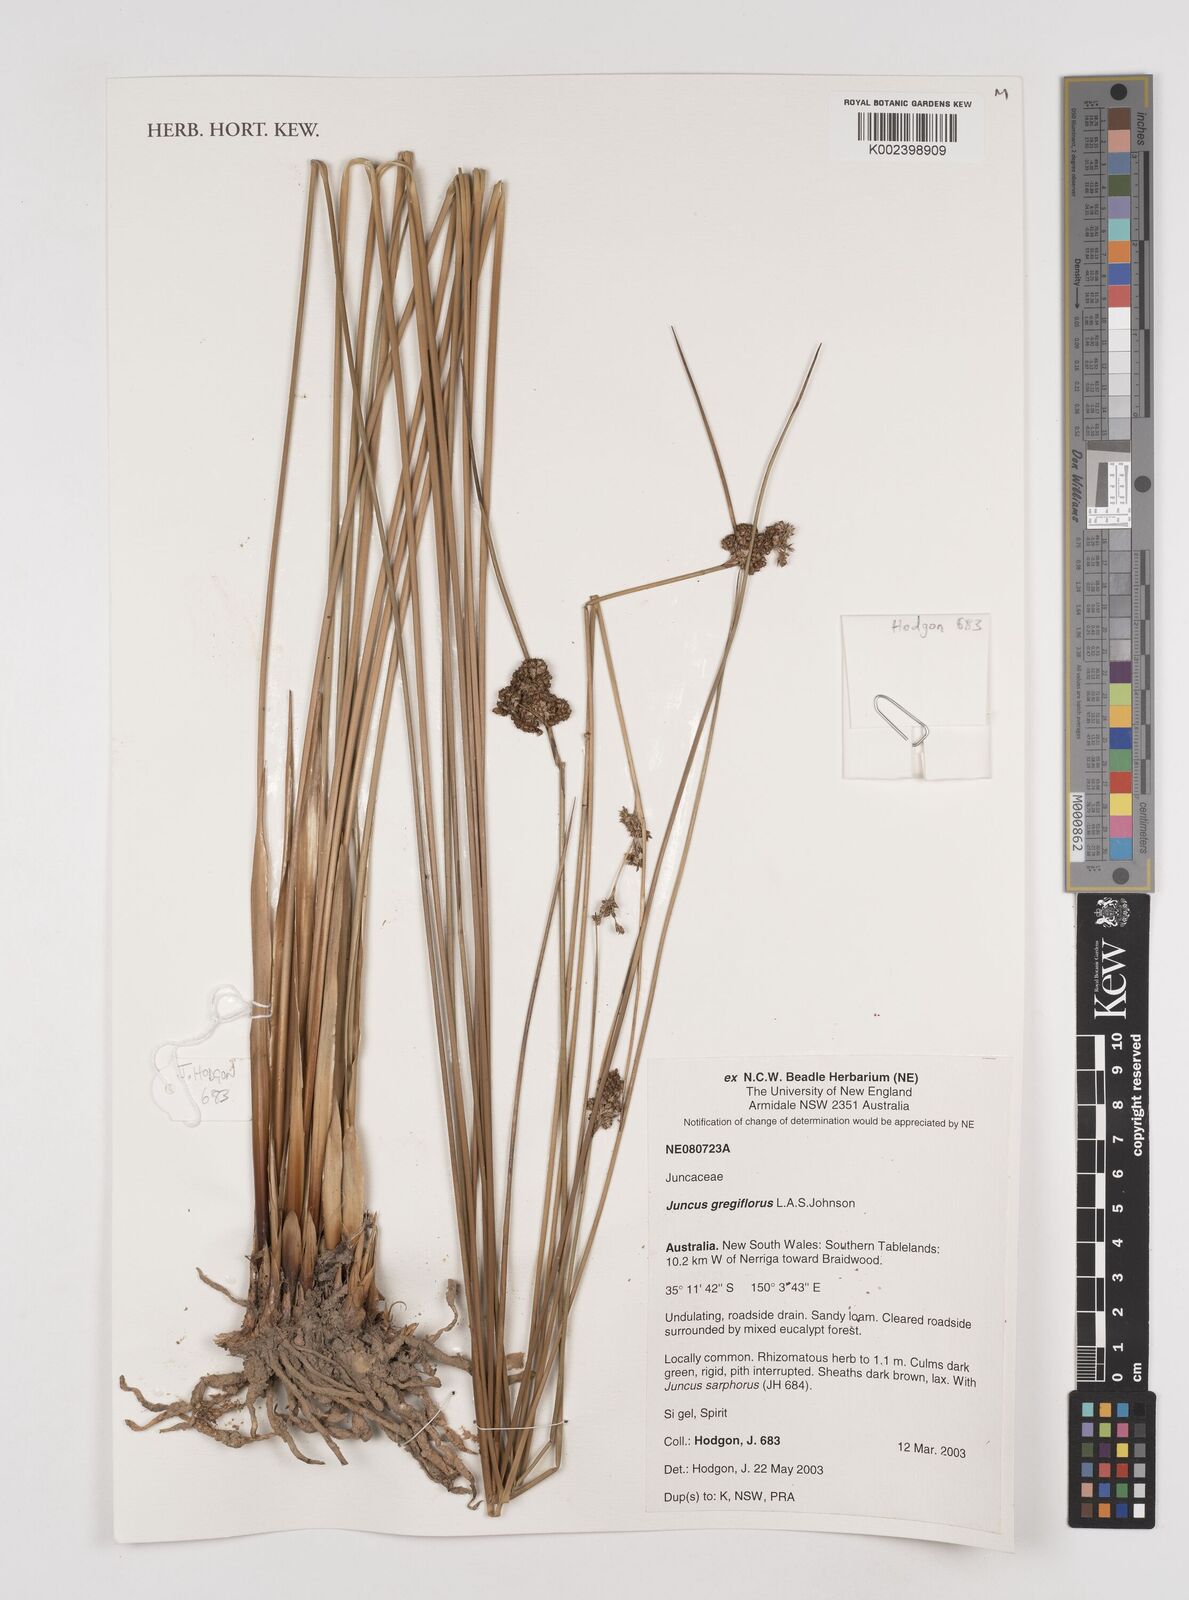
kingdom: Plantae
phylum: Tracheophyta
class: Liliopsida
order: Poales
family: Juncaceae
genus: Juncus
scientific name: Juncus gregiflorus
